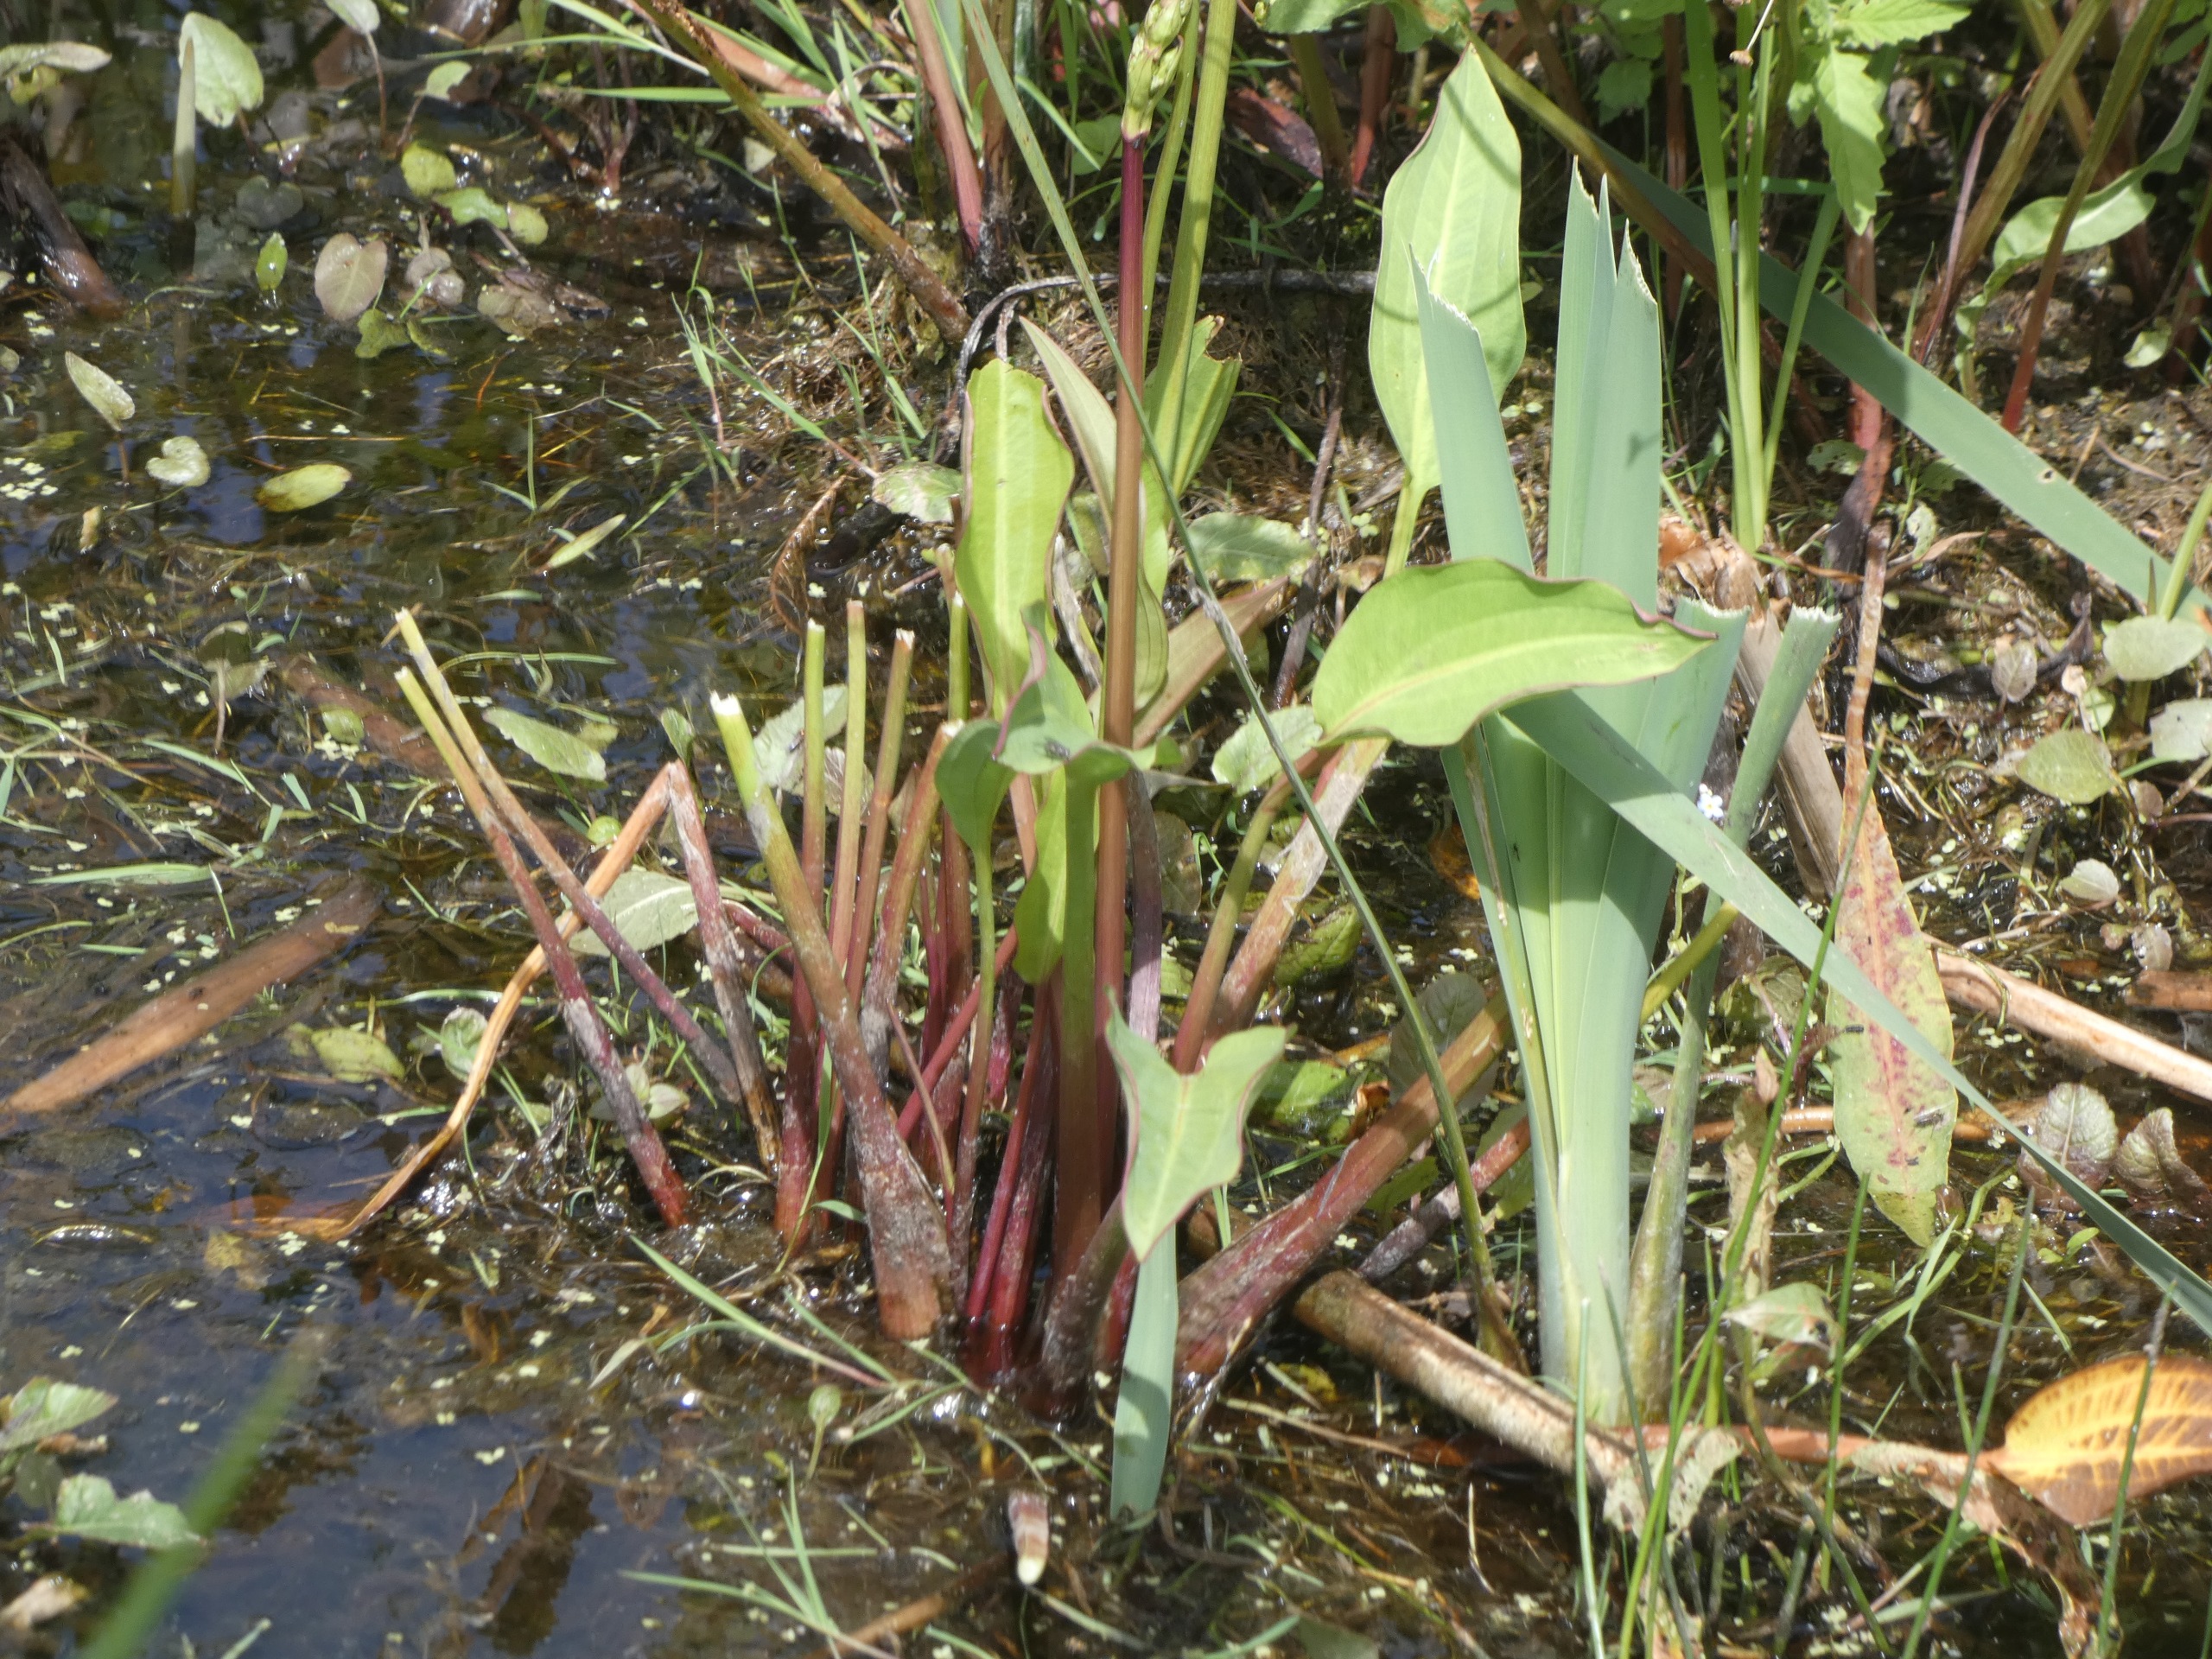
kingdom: Plantae
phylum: Tracheophyta
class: Liliopsida
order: Alismatales
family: Alismataceae
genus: Alisma
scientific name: Alisma plantago-aquatica
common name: Vejbred-skeblad
